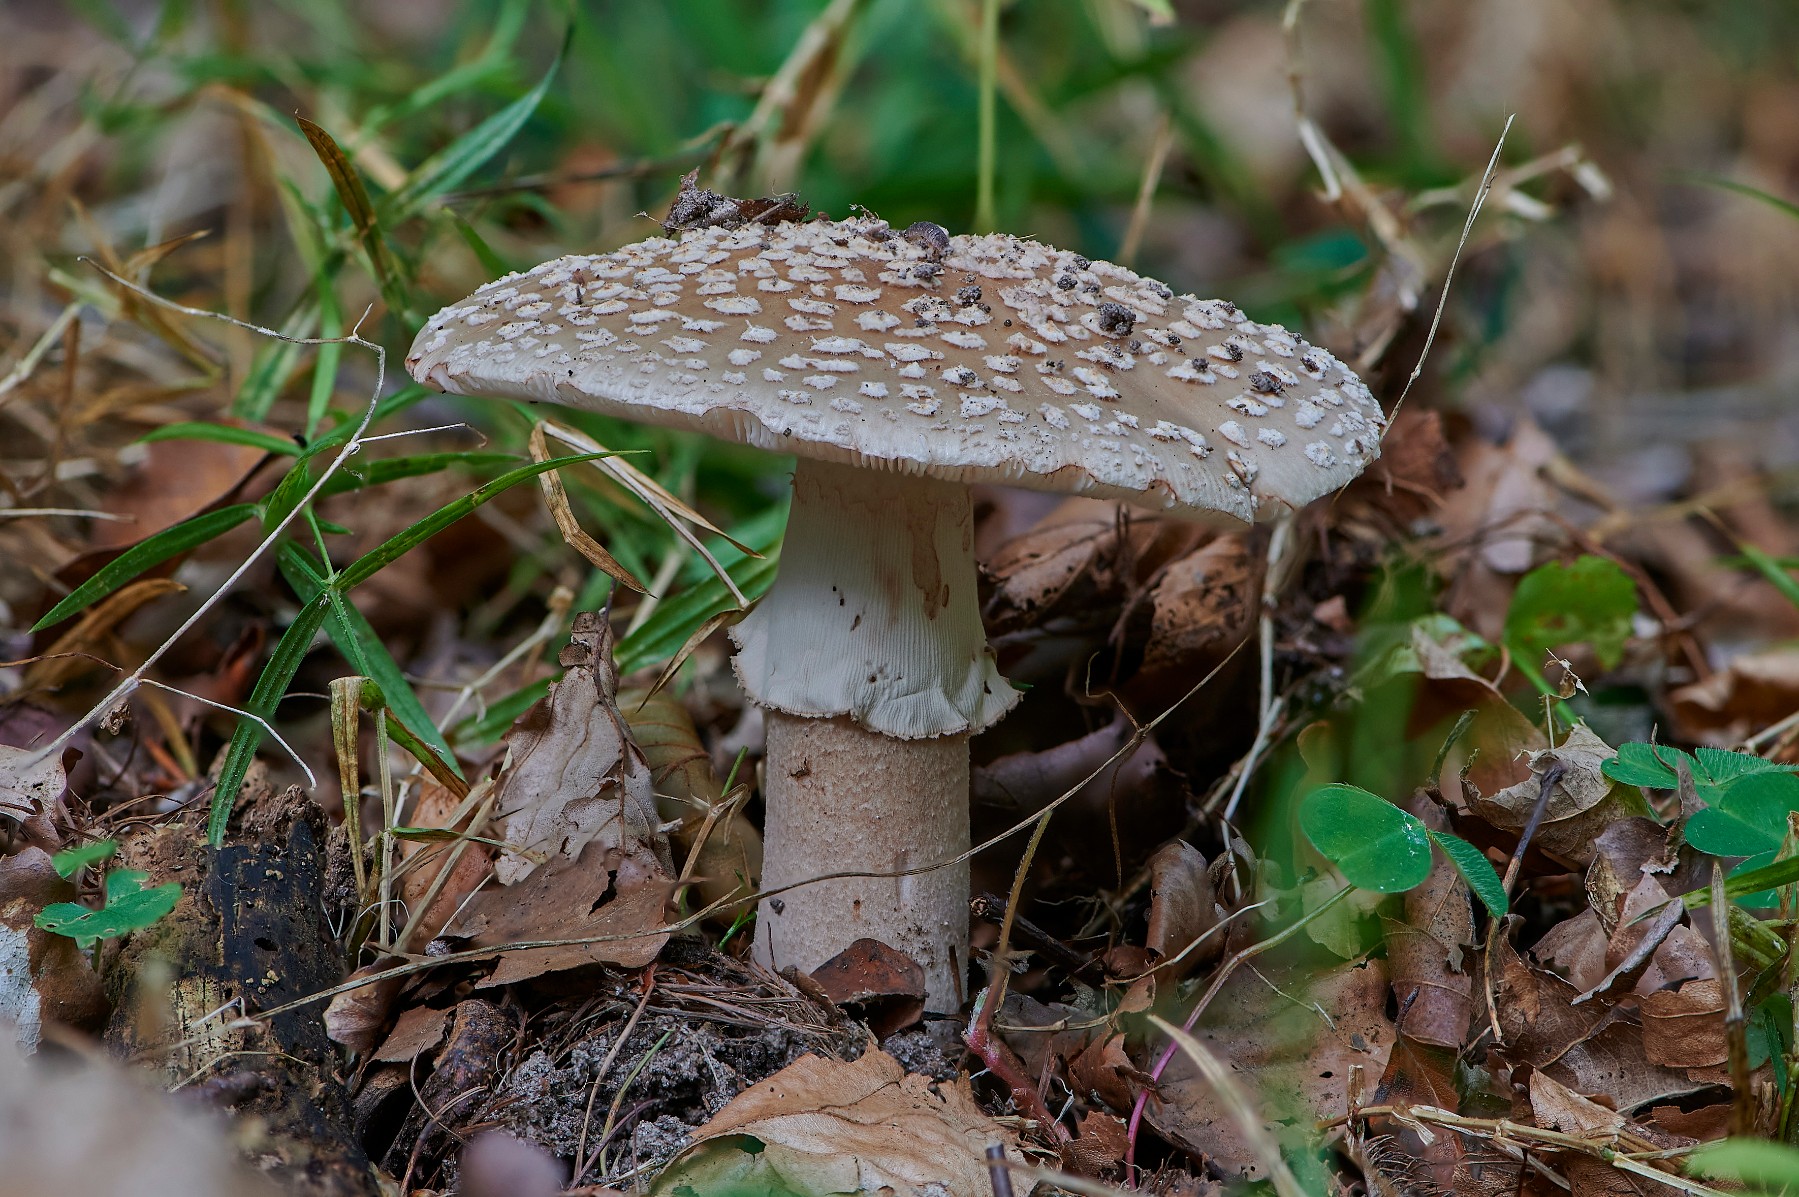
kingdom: Fungi
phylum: Basidiomycota
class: Agaricomycetes
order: Agaricales
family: Amanitaceae
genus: Amanita
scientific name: Amanita rubescens
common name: rødmende fluesvamp
